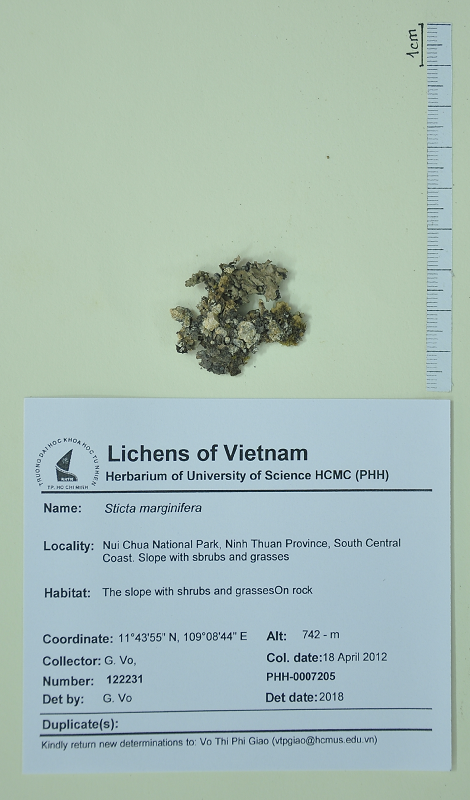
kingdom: Fungi
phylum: Ascomycota
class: Lecanoromycetes
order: Peltigerales
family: Lobariaceae
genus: Sticta
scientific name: Sticta marginifera
